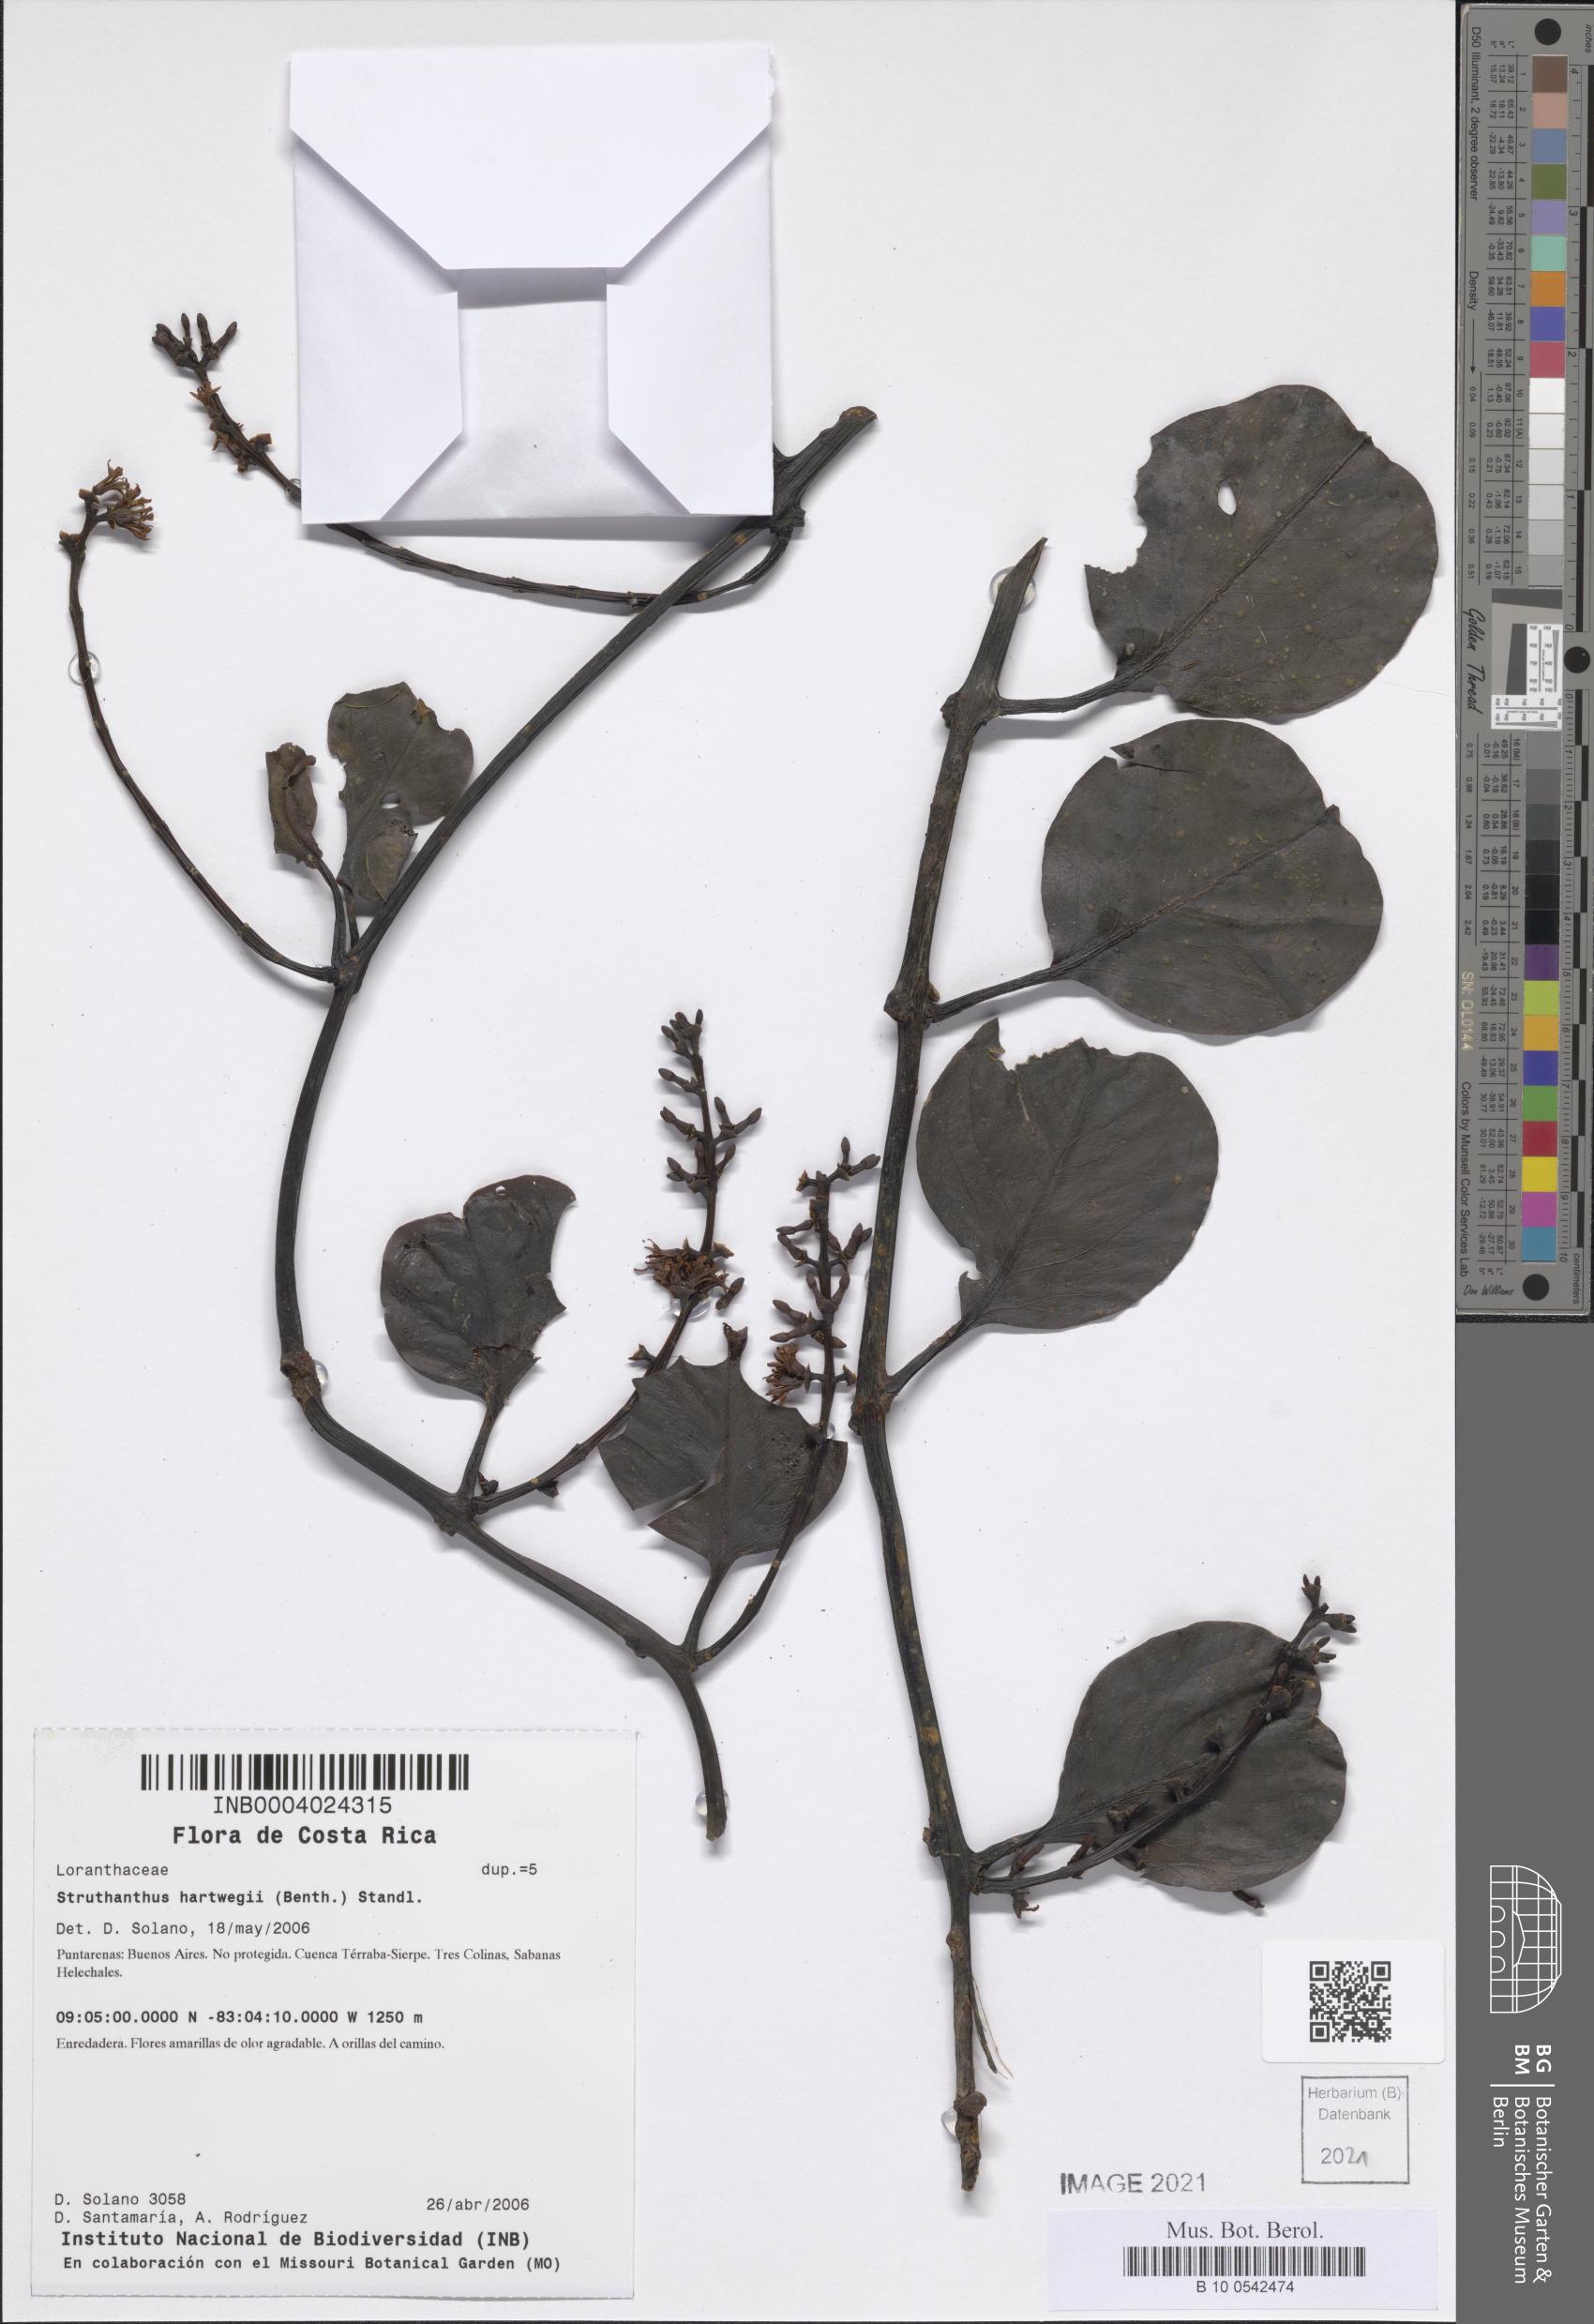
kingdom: Plantae
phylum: Tracheophyta
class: Magnoliopsida
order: Santalales
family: Loranthaceae
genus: Struthanthus
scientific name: Struthanthus hartwegii
